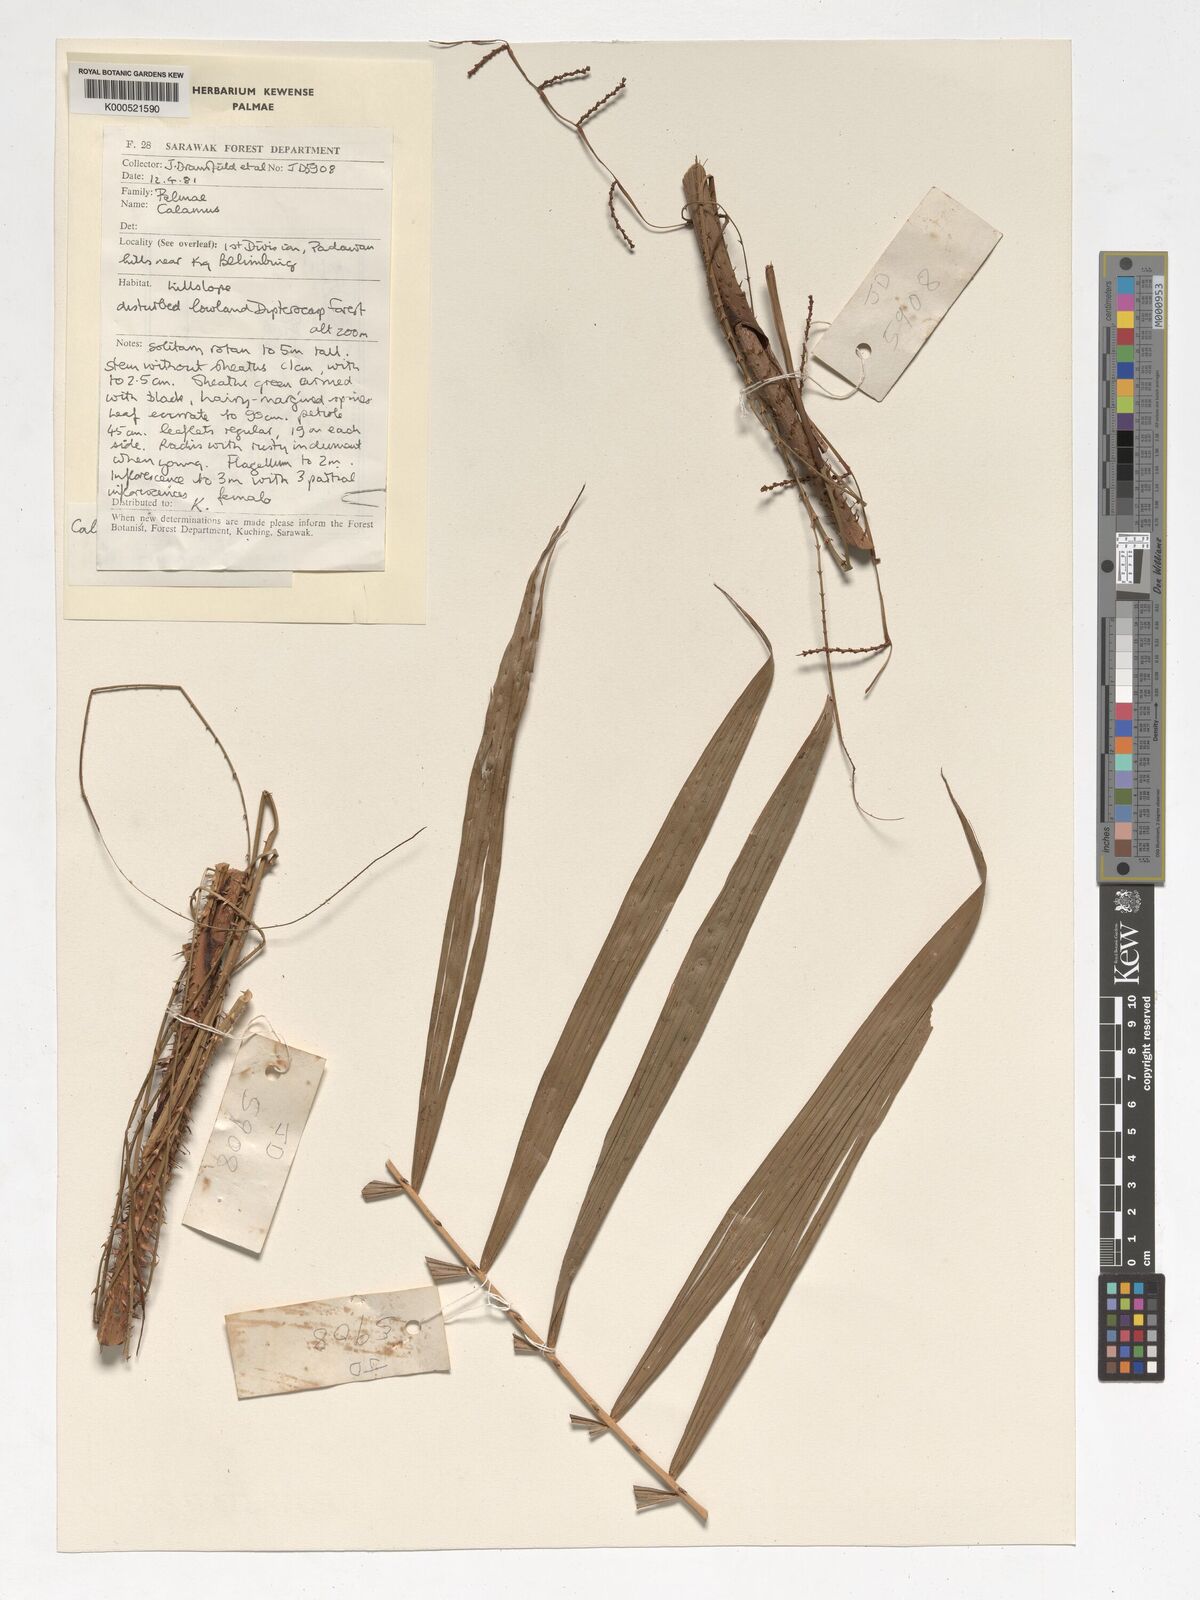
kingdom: Plantae
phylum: Tracheophyta
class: Liliopsida
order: Arecales
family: Arecaceae
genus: Calamus
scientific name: Calamus nematospadix
